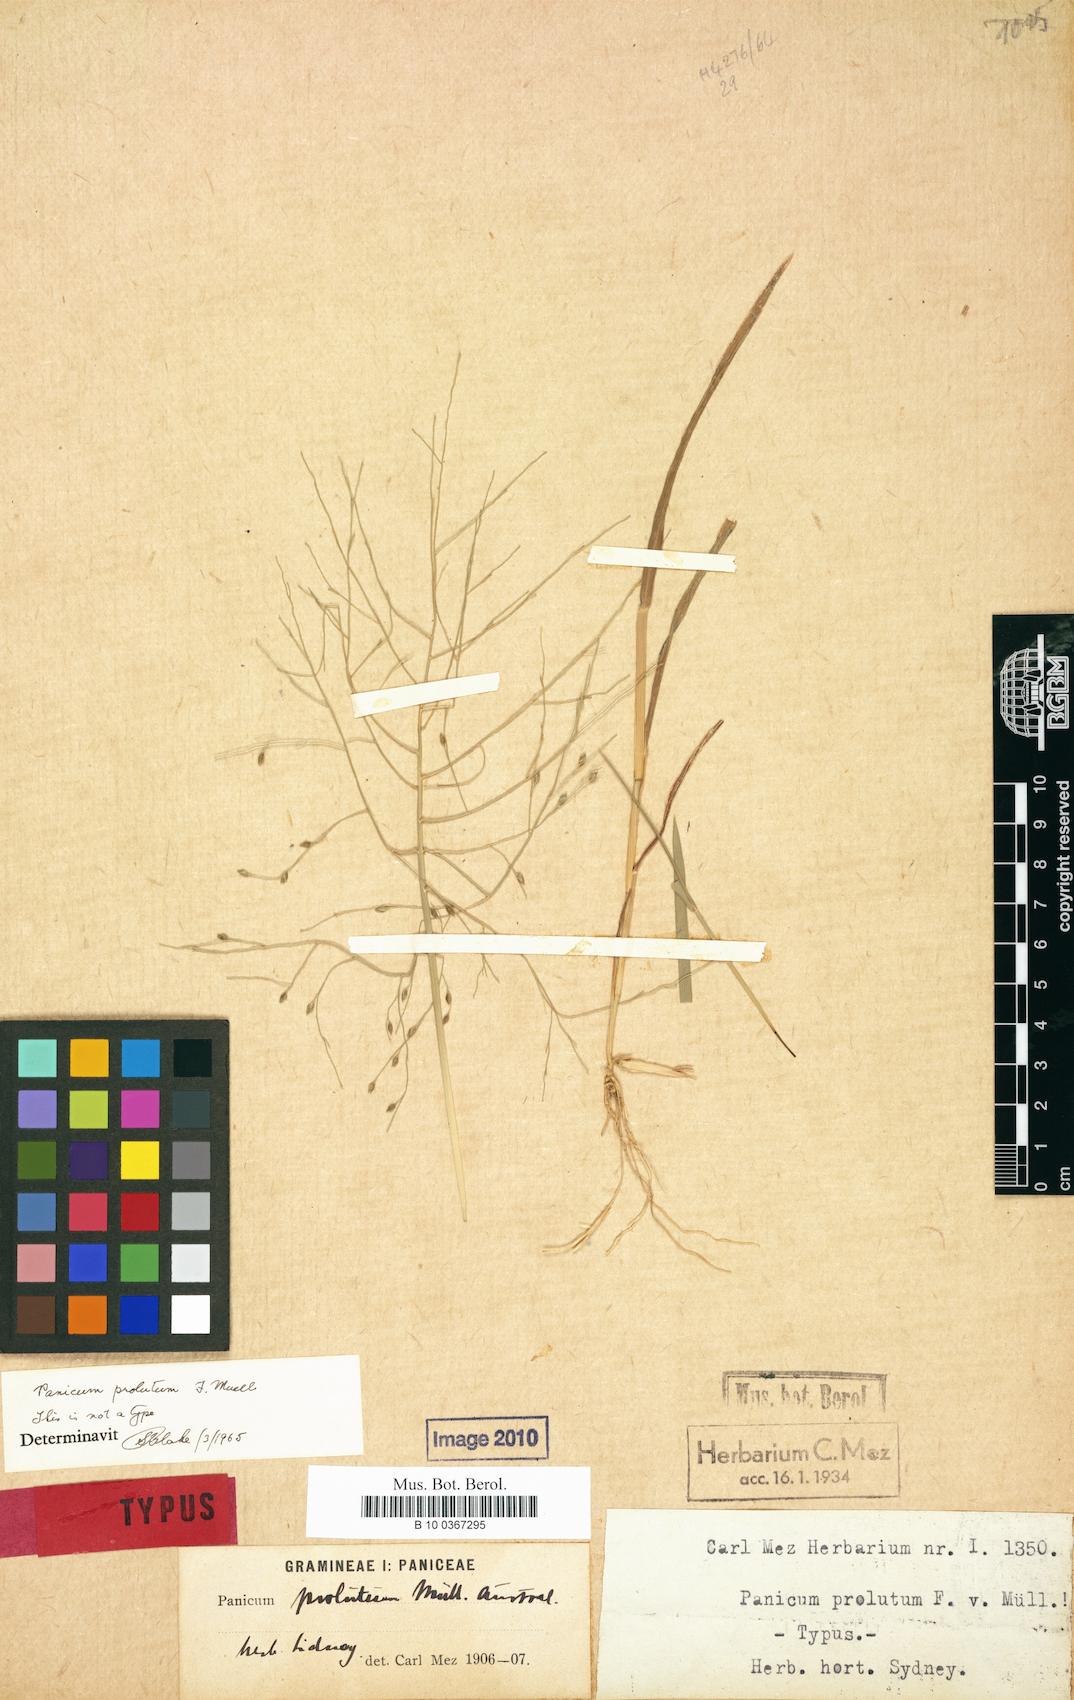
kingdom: Plantae
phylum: Tracheophyta
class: Liliopsida
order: Poales
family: Poaceae
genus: Walwhalleya
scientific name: Walwhalleya proluta
